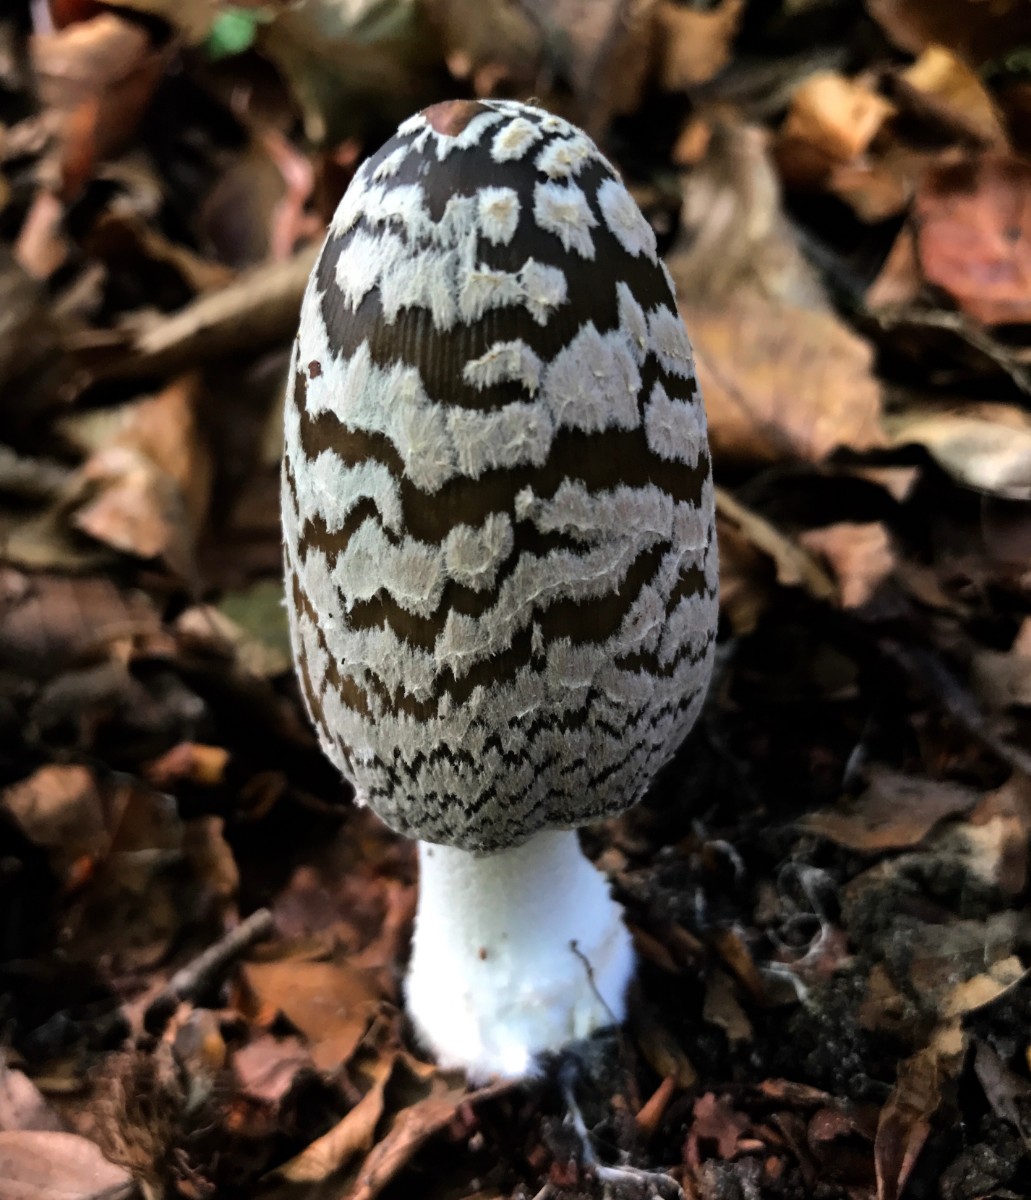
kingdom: Fungi
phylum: Basidiomycota
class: Agaricomycetes
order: Agaricales
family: Psathyrellaceae
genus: Coprinopsis
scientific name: Coprinopsis picacea
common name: skade-blækhat
